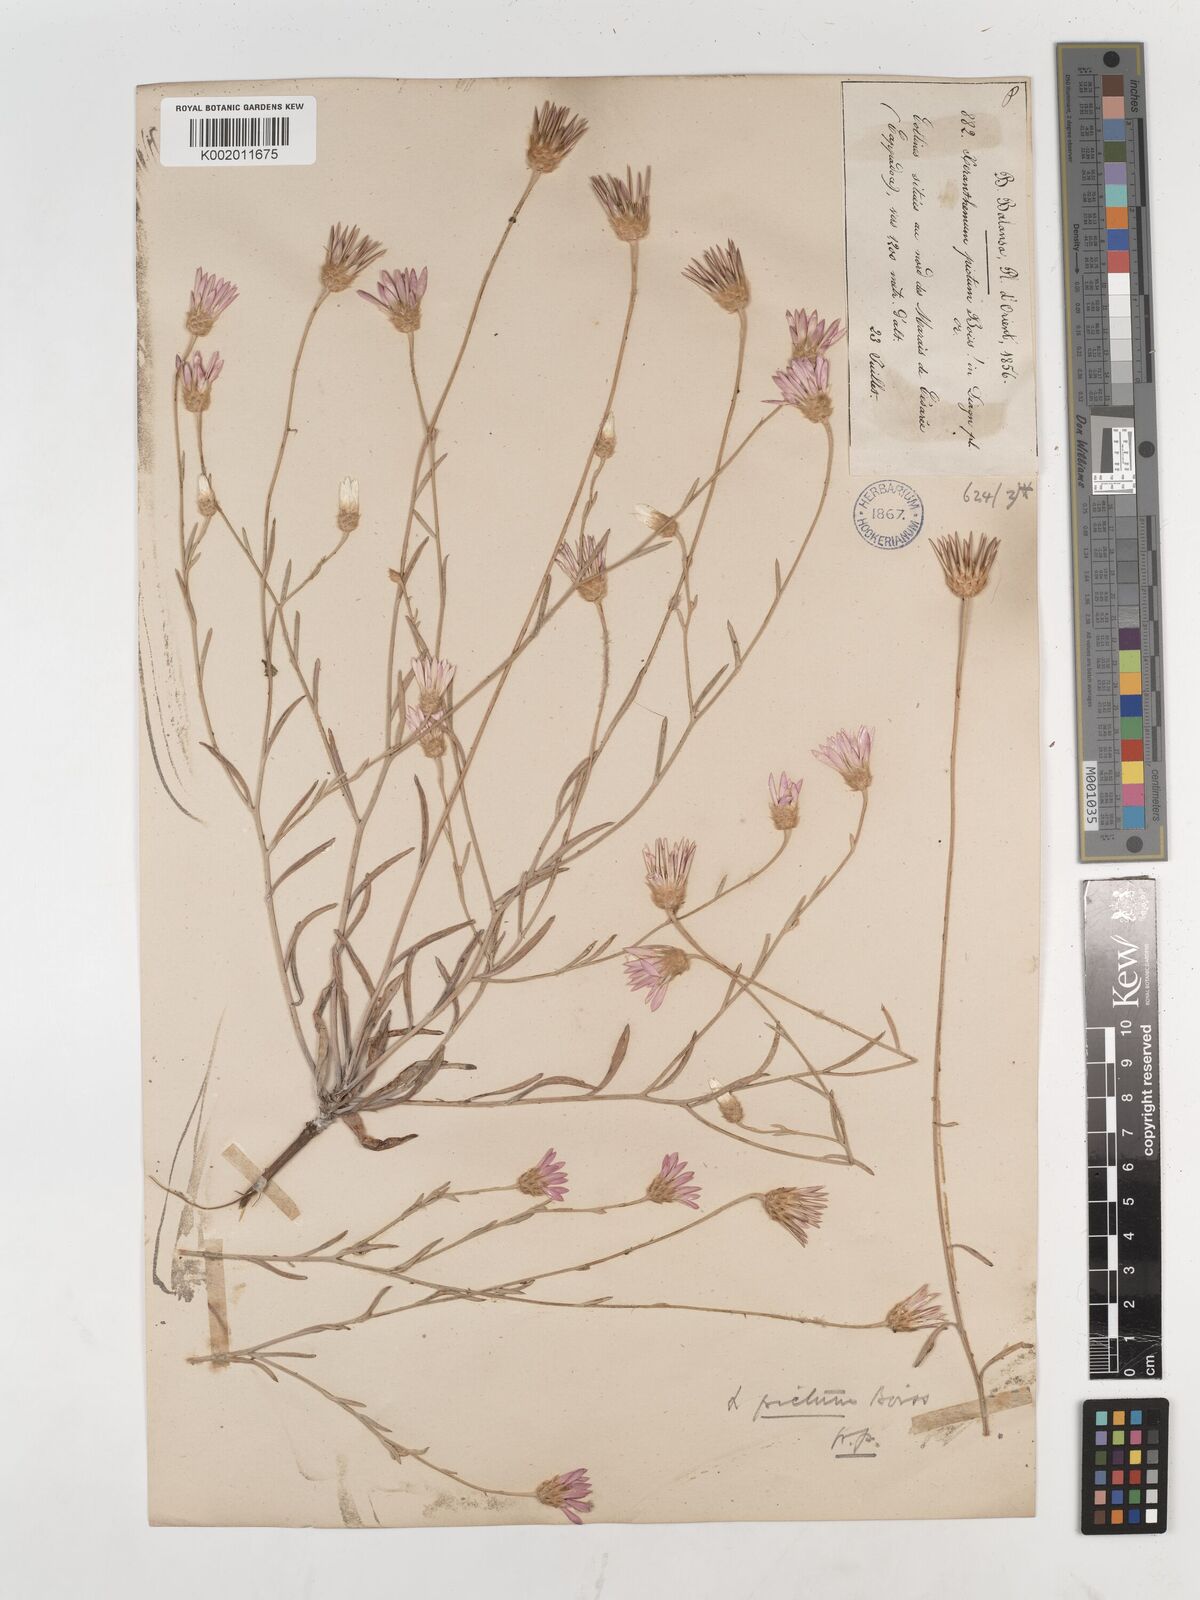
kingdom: Plantae
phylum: Tracheophyta
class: Magnoliopsida
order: Asterales
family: Asteraceae
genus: Xeranthemum
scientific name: Xeranthemum squarrosum
